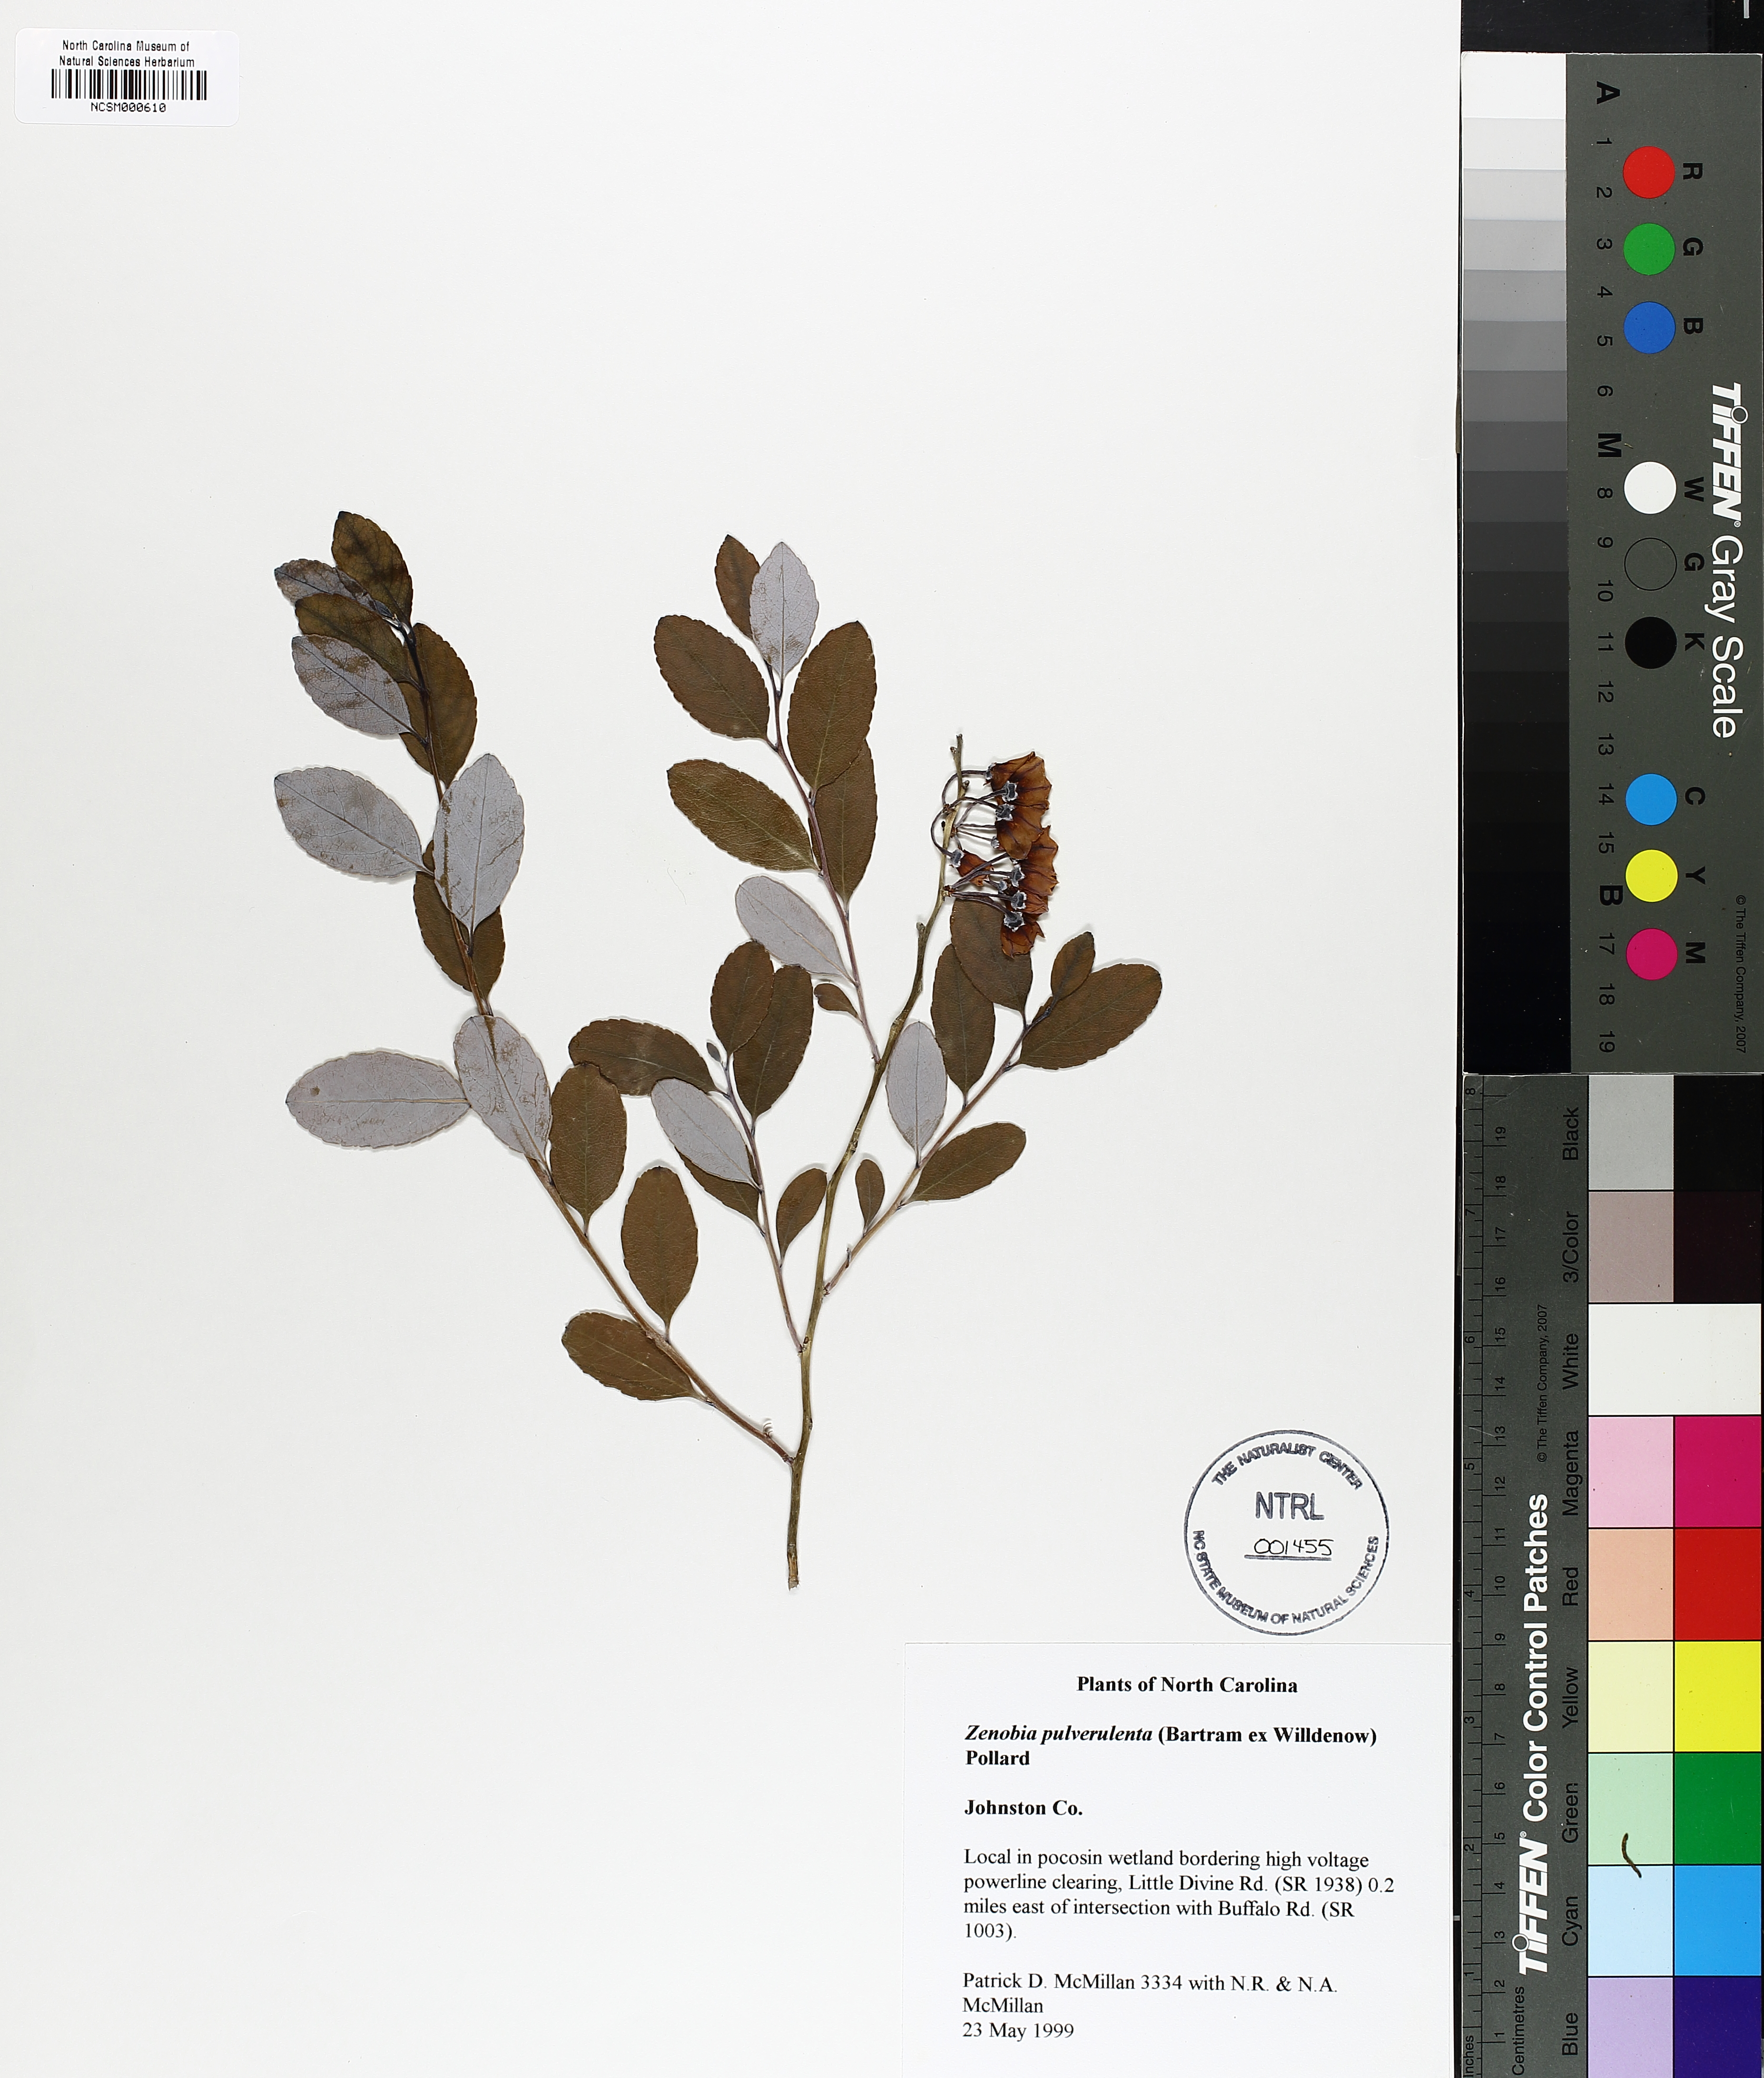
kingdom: Plantae
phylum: Tracheophyta
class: Magnoliopsida
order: Ericales
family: Ericaceae
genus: Zenobia
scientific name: Zenobia pulverulenta
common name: Zenobia
